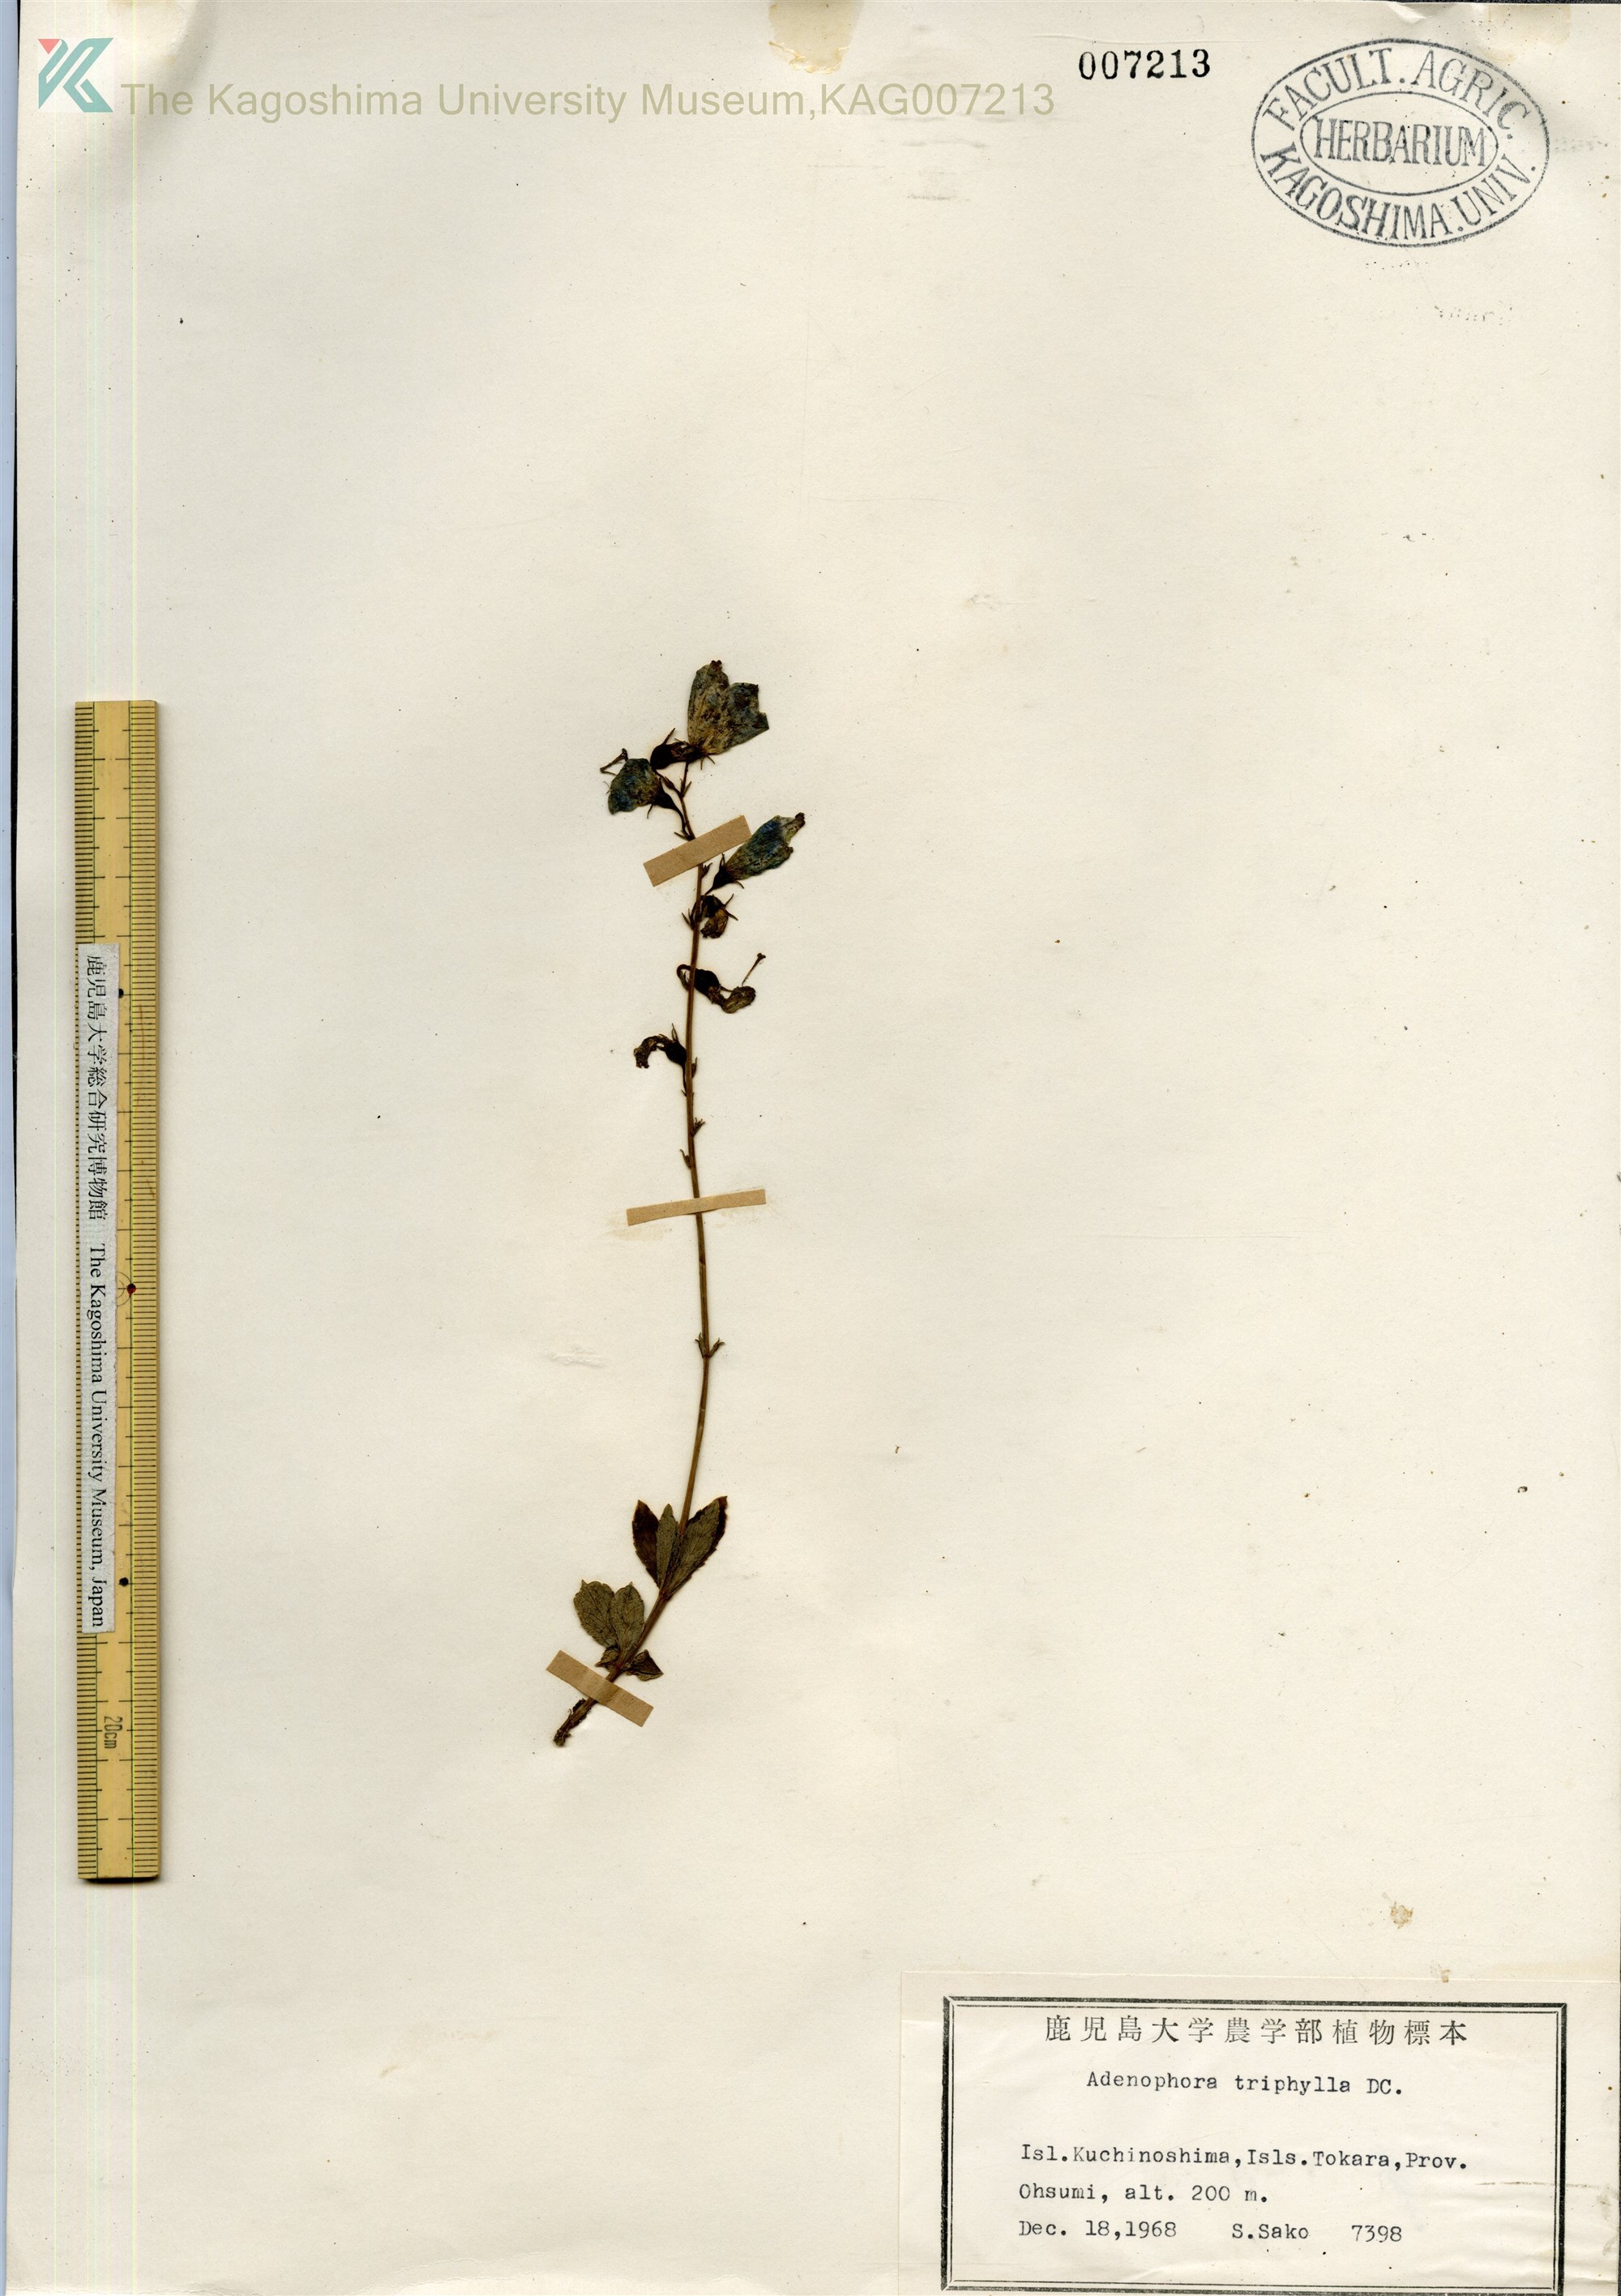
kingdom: Plantae
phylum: Tracheophyta
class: Magnoliopsida
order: Asterales
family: Campanulaceae
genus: Adenophora
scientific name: Adenophora tashiroi
